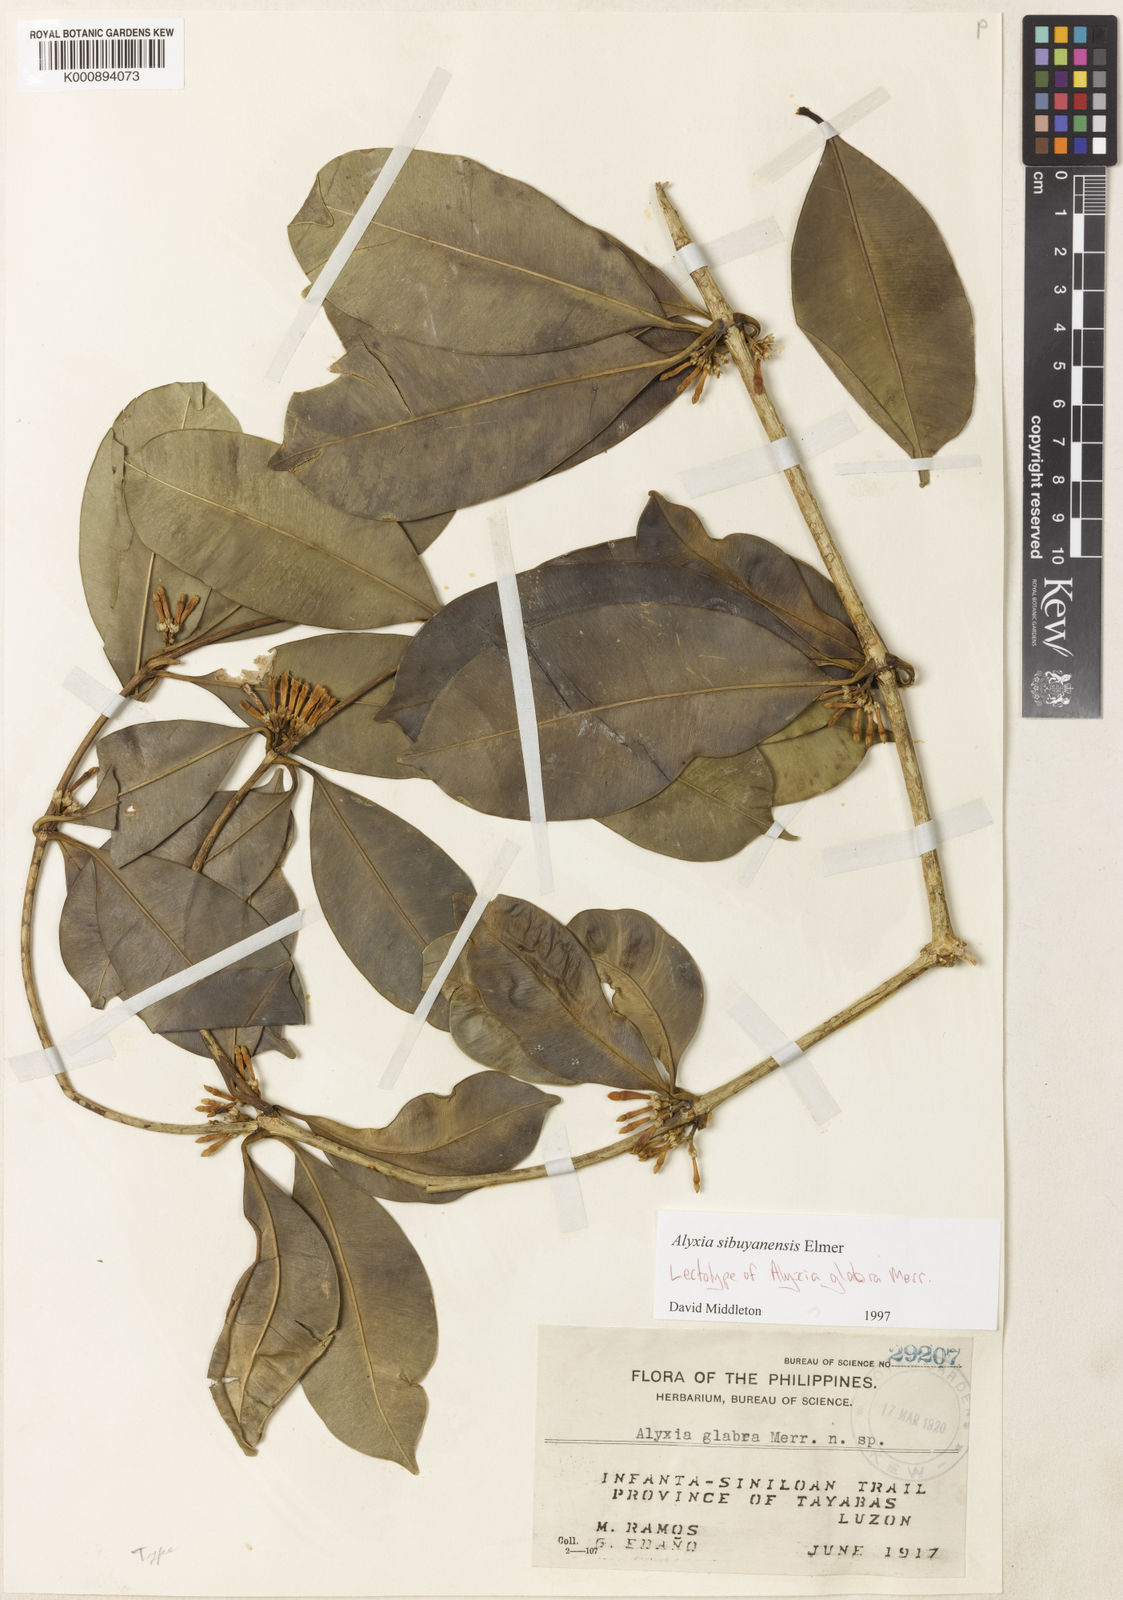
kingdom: Plantae
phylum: Tracheophyta
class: Magnoliopsida
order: Gentianales
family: Apocynaceae
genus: Alyxia
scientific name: Alyxia monticola
